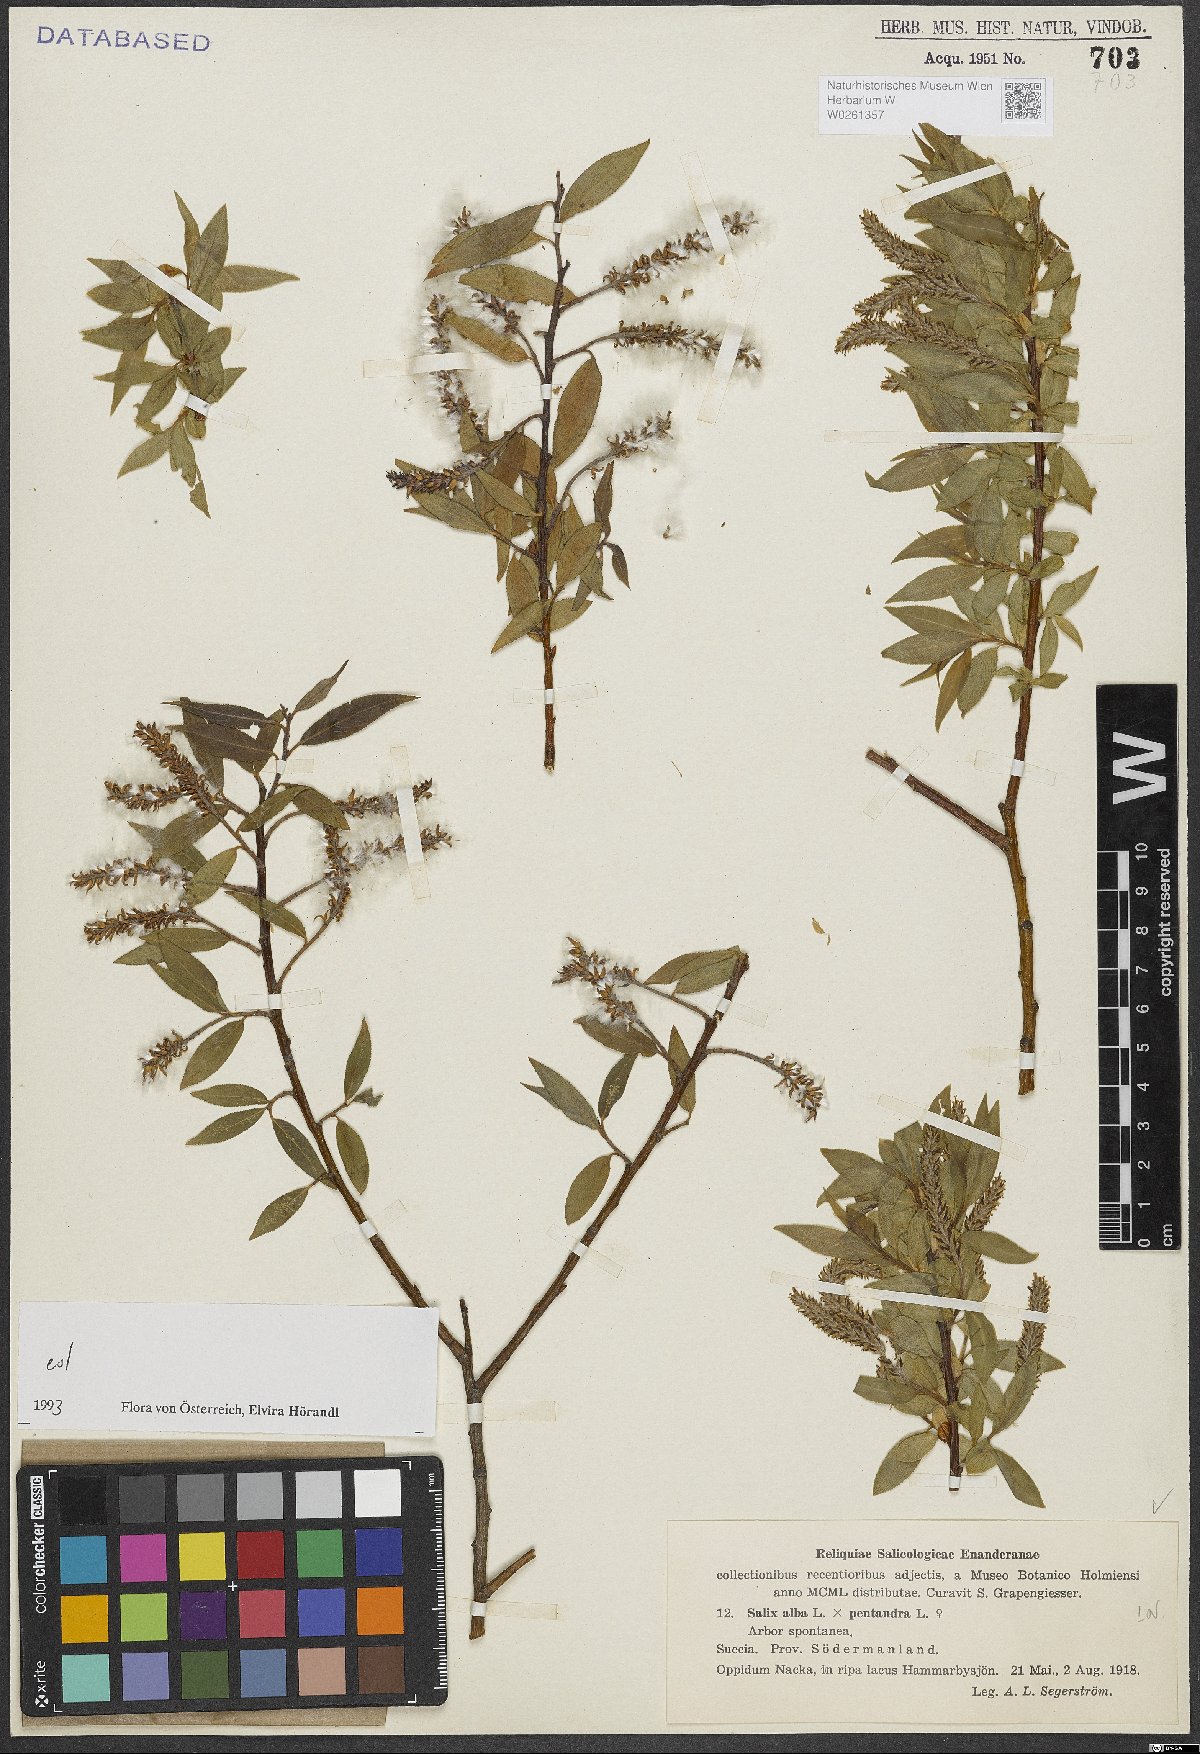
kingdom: Plantae
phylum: Tracheophyta
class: Magnoliopsida
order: Malpighiales
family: Salicaceae
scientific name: Salicaceae
